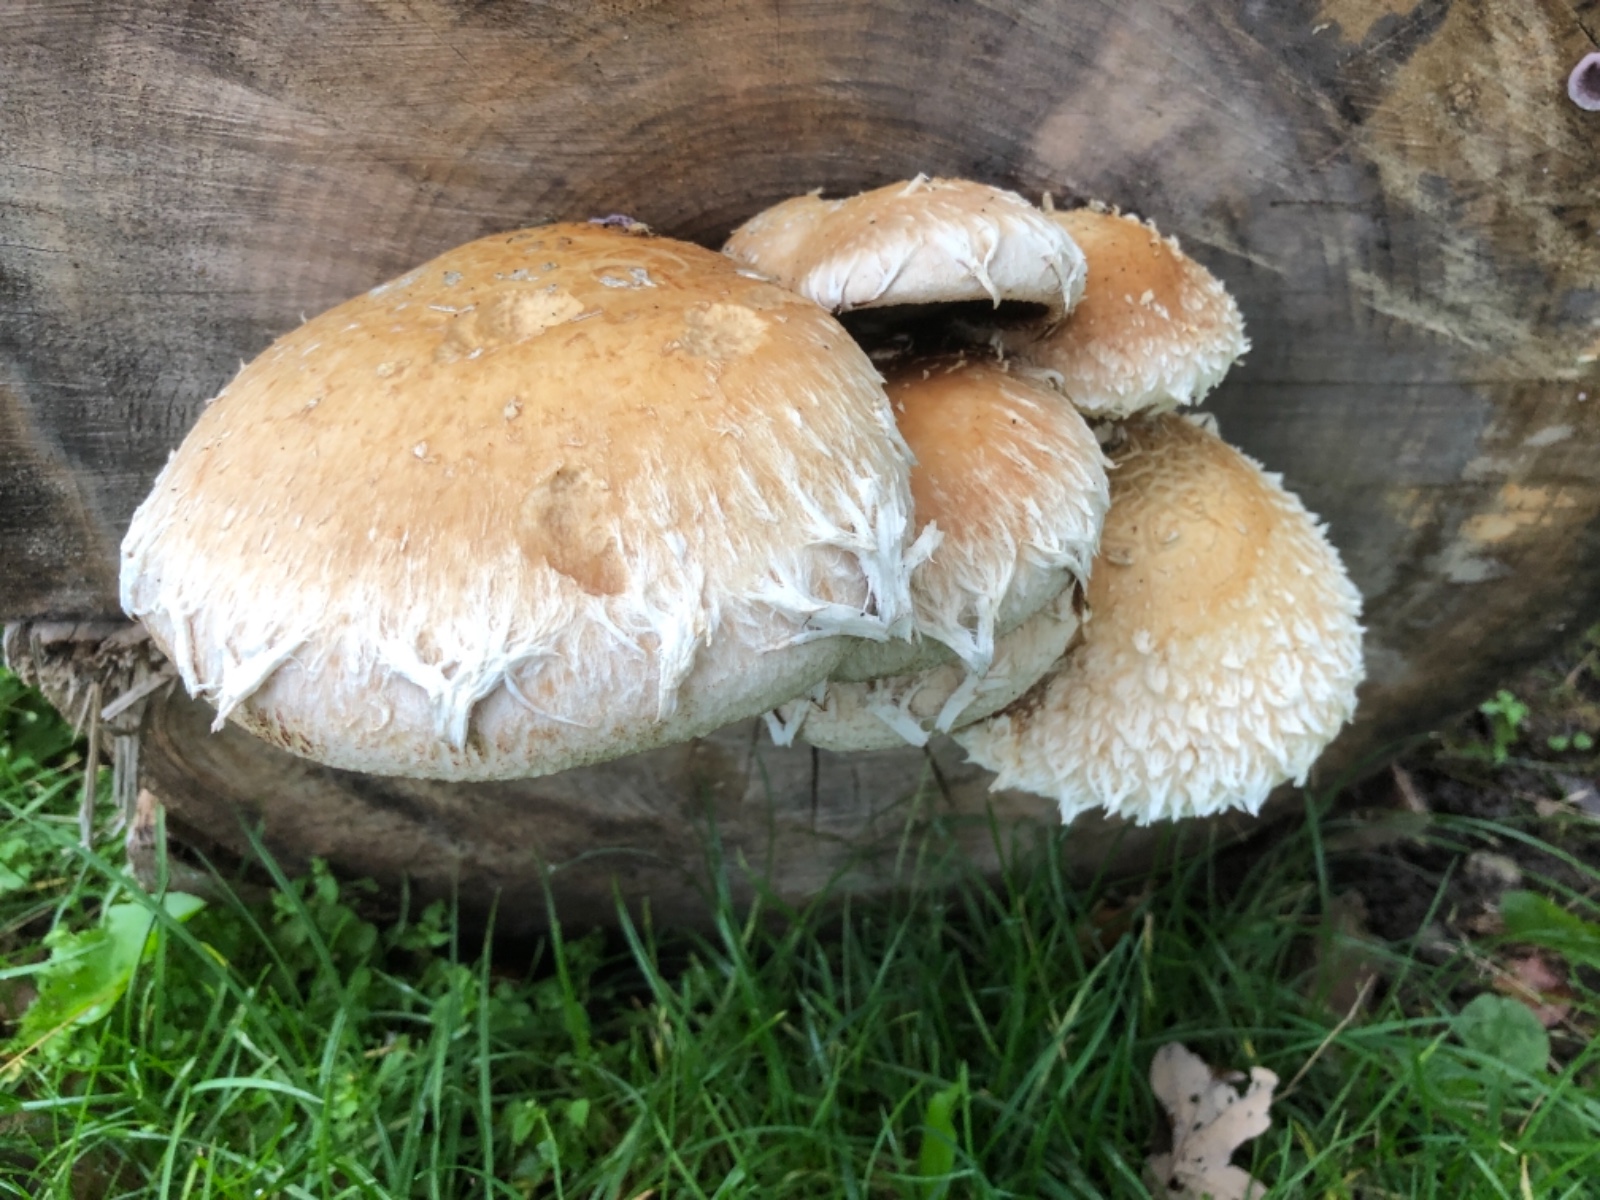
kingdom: Fungi
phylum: Basidiomycota
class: Agaricomycetes
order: Agaricales
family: Strophariaceae
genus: Pholiota
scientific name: Pholiota populnea
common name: poppel-kæmpeskælhat
